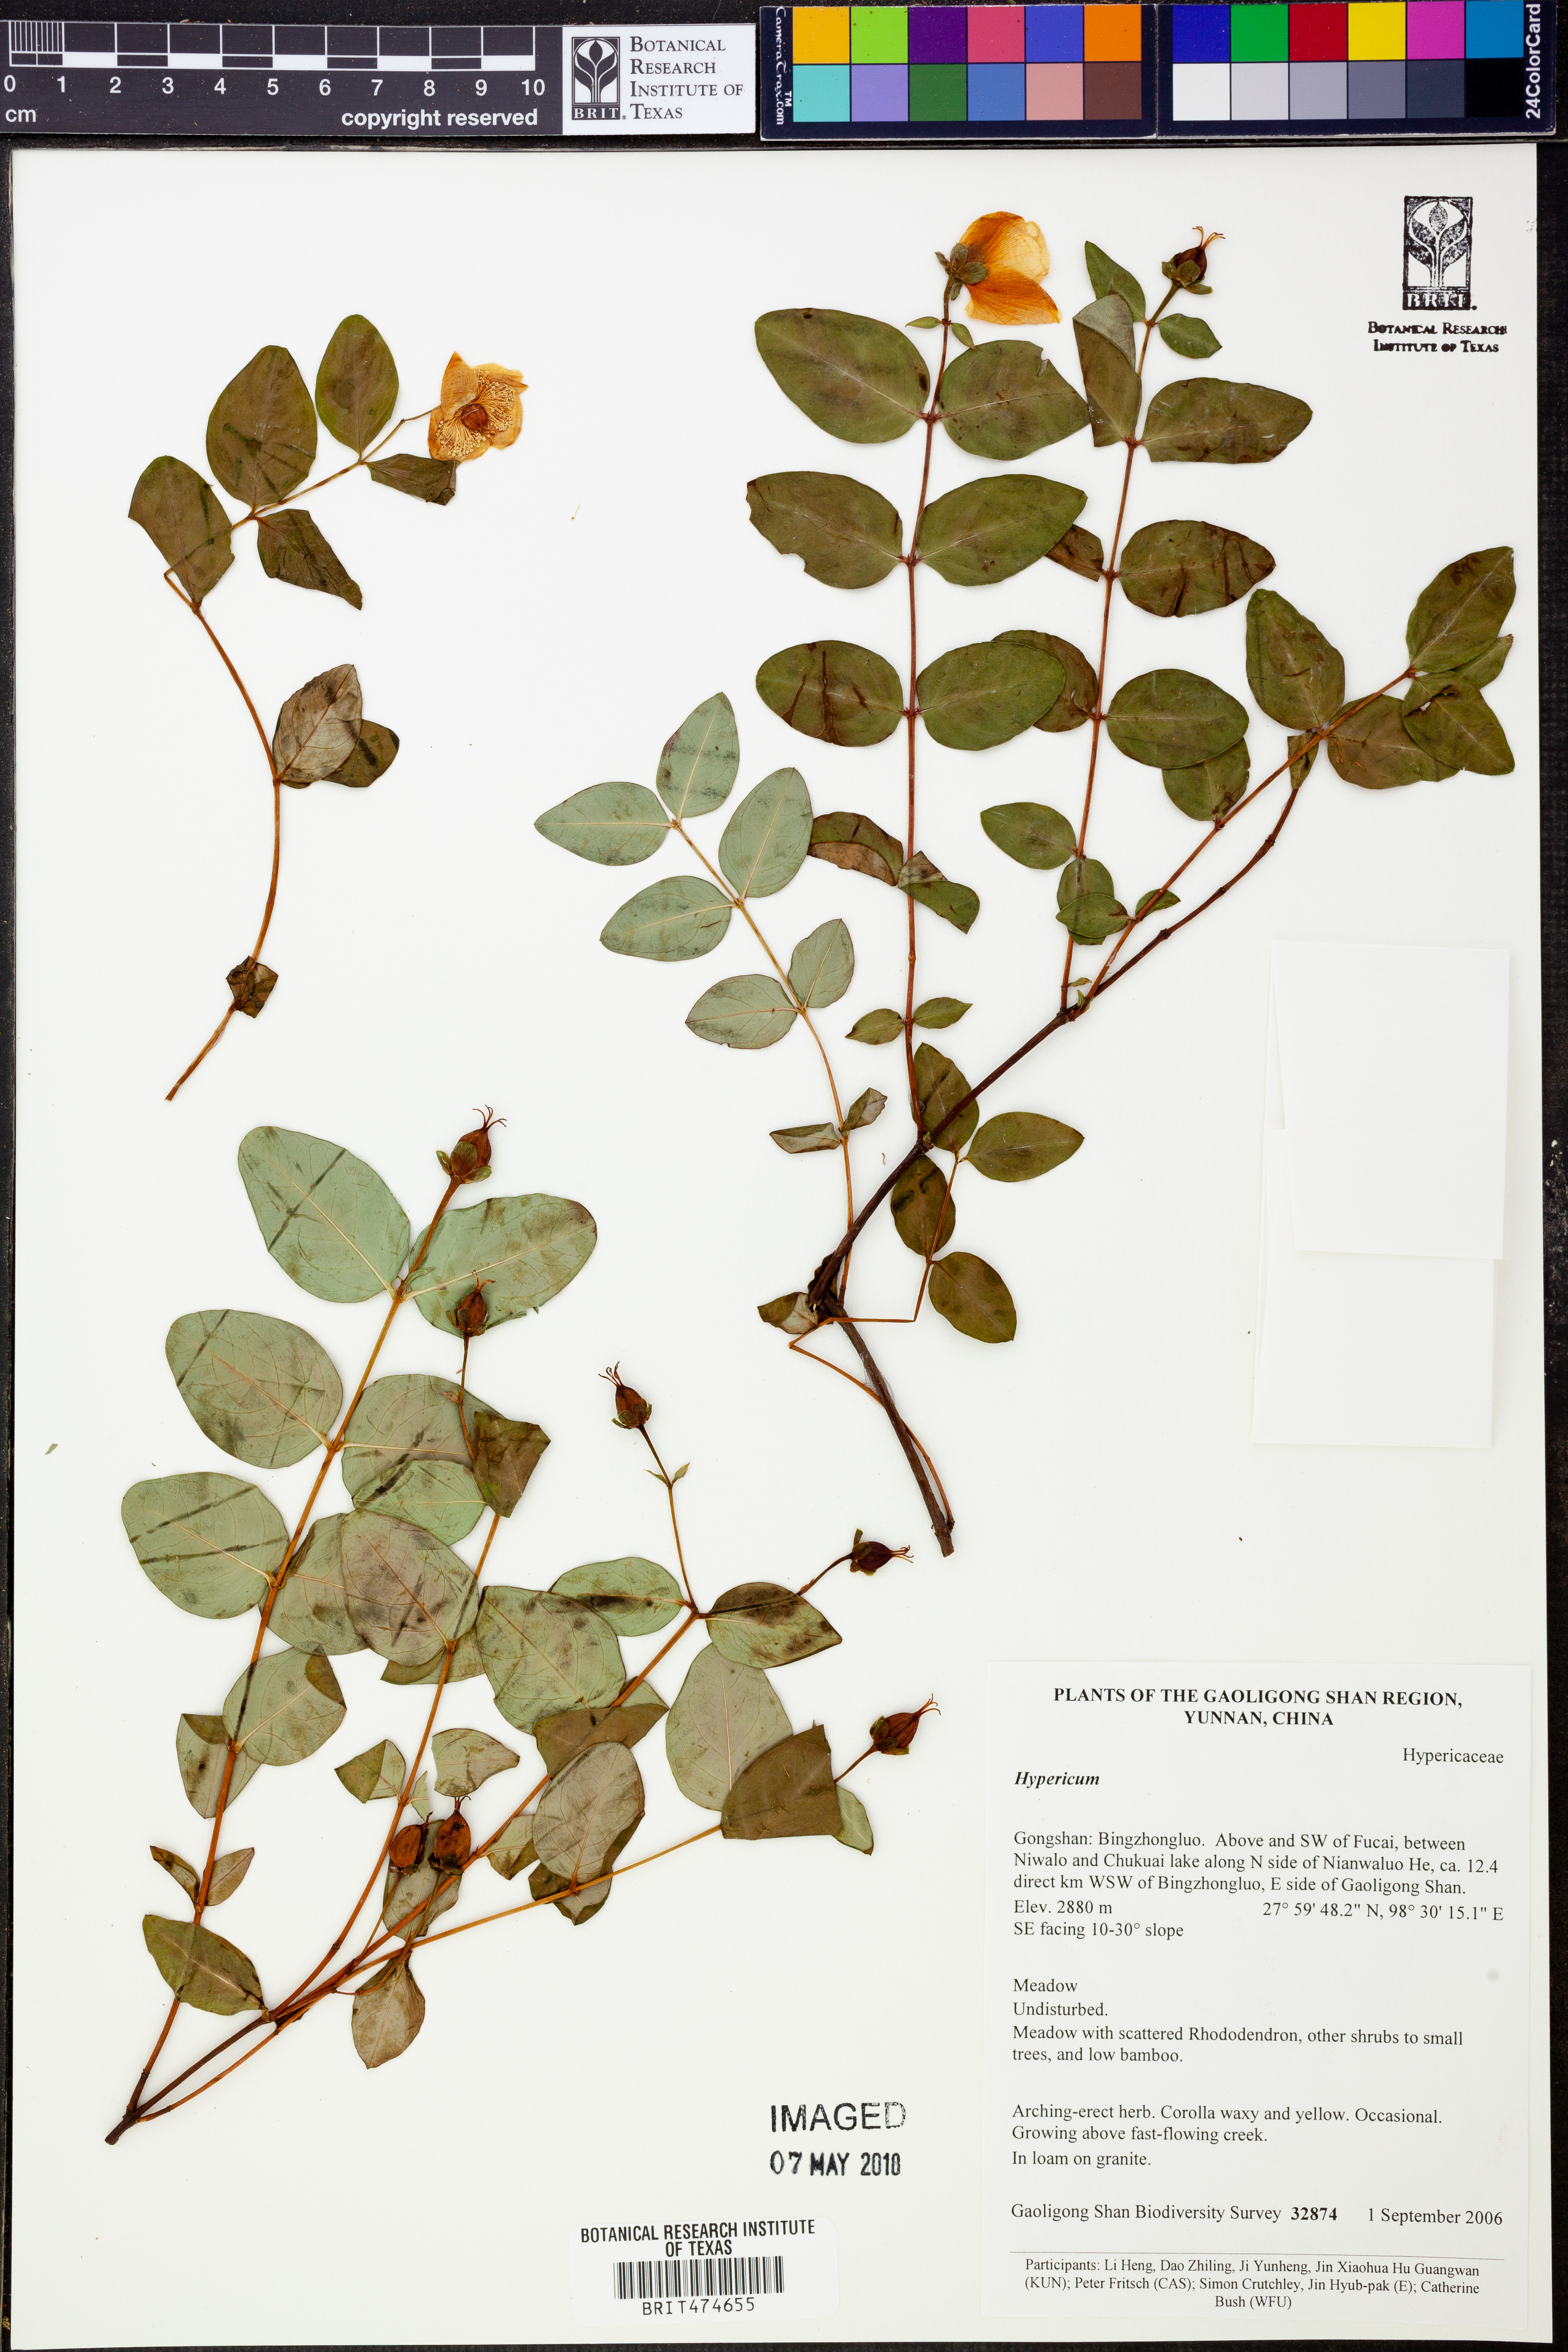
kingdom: Plantae
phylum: Tracheophyta
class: Magnoliopsida
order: Malpighiales
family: Hypericaceae
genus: Hypericum
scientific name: Hypericum
